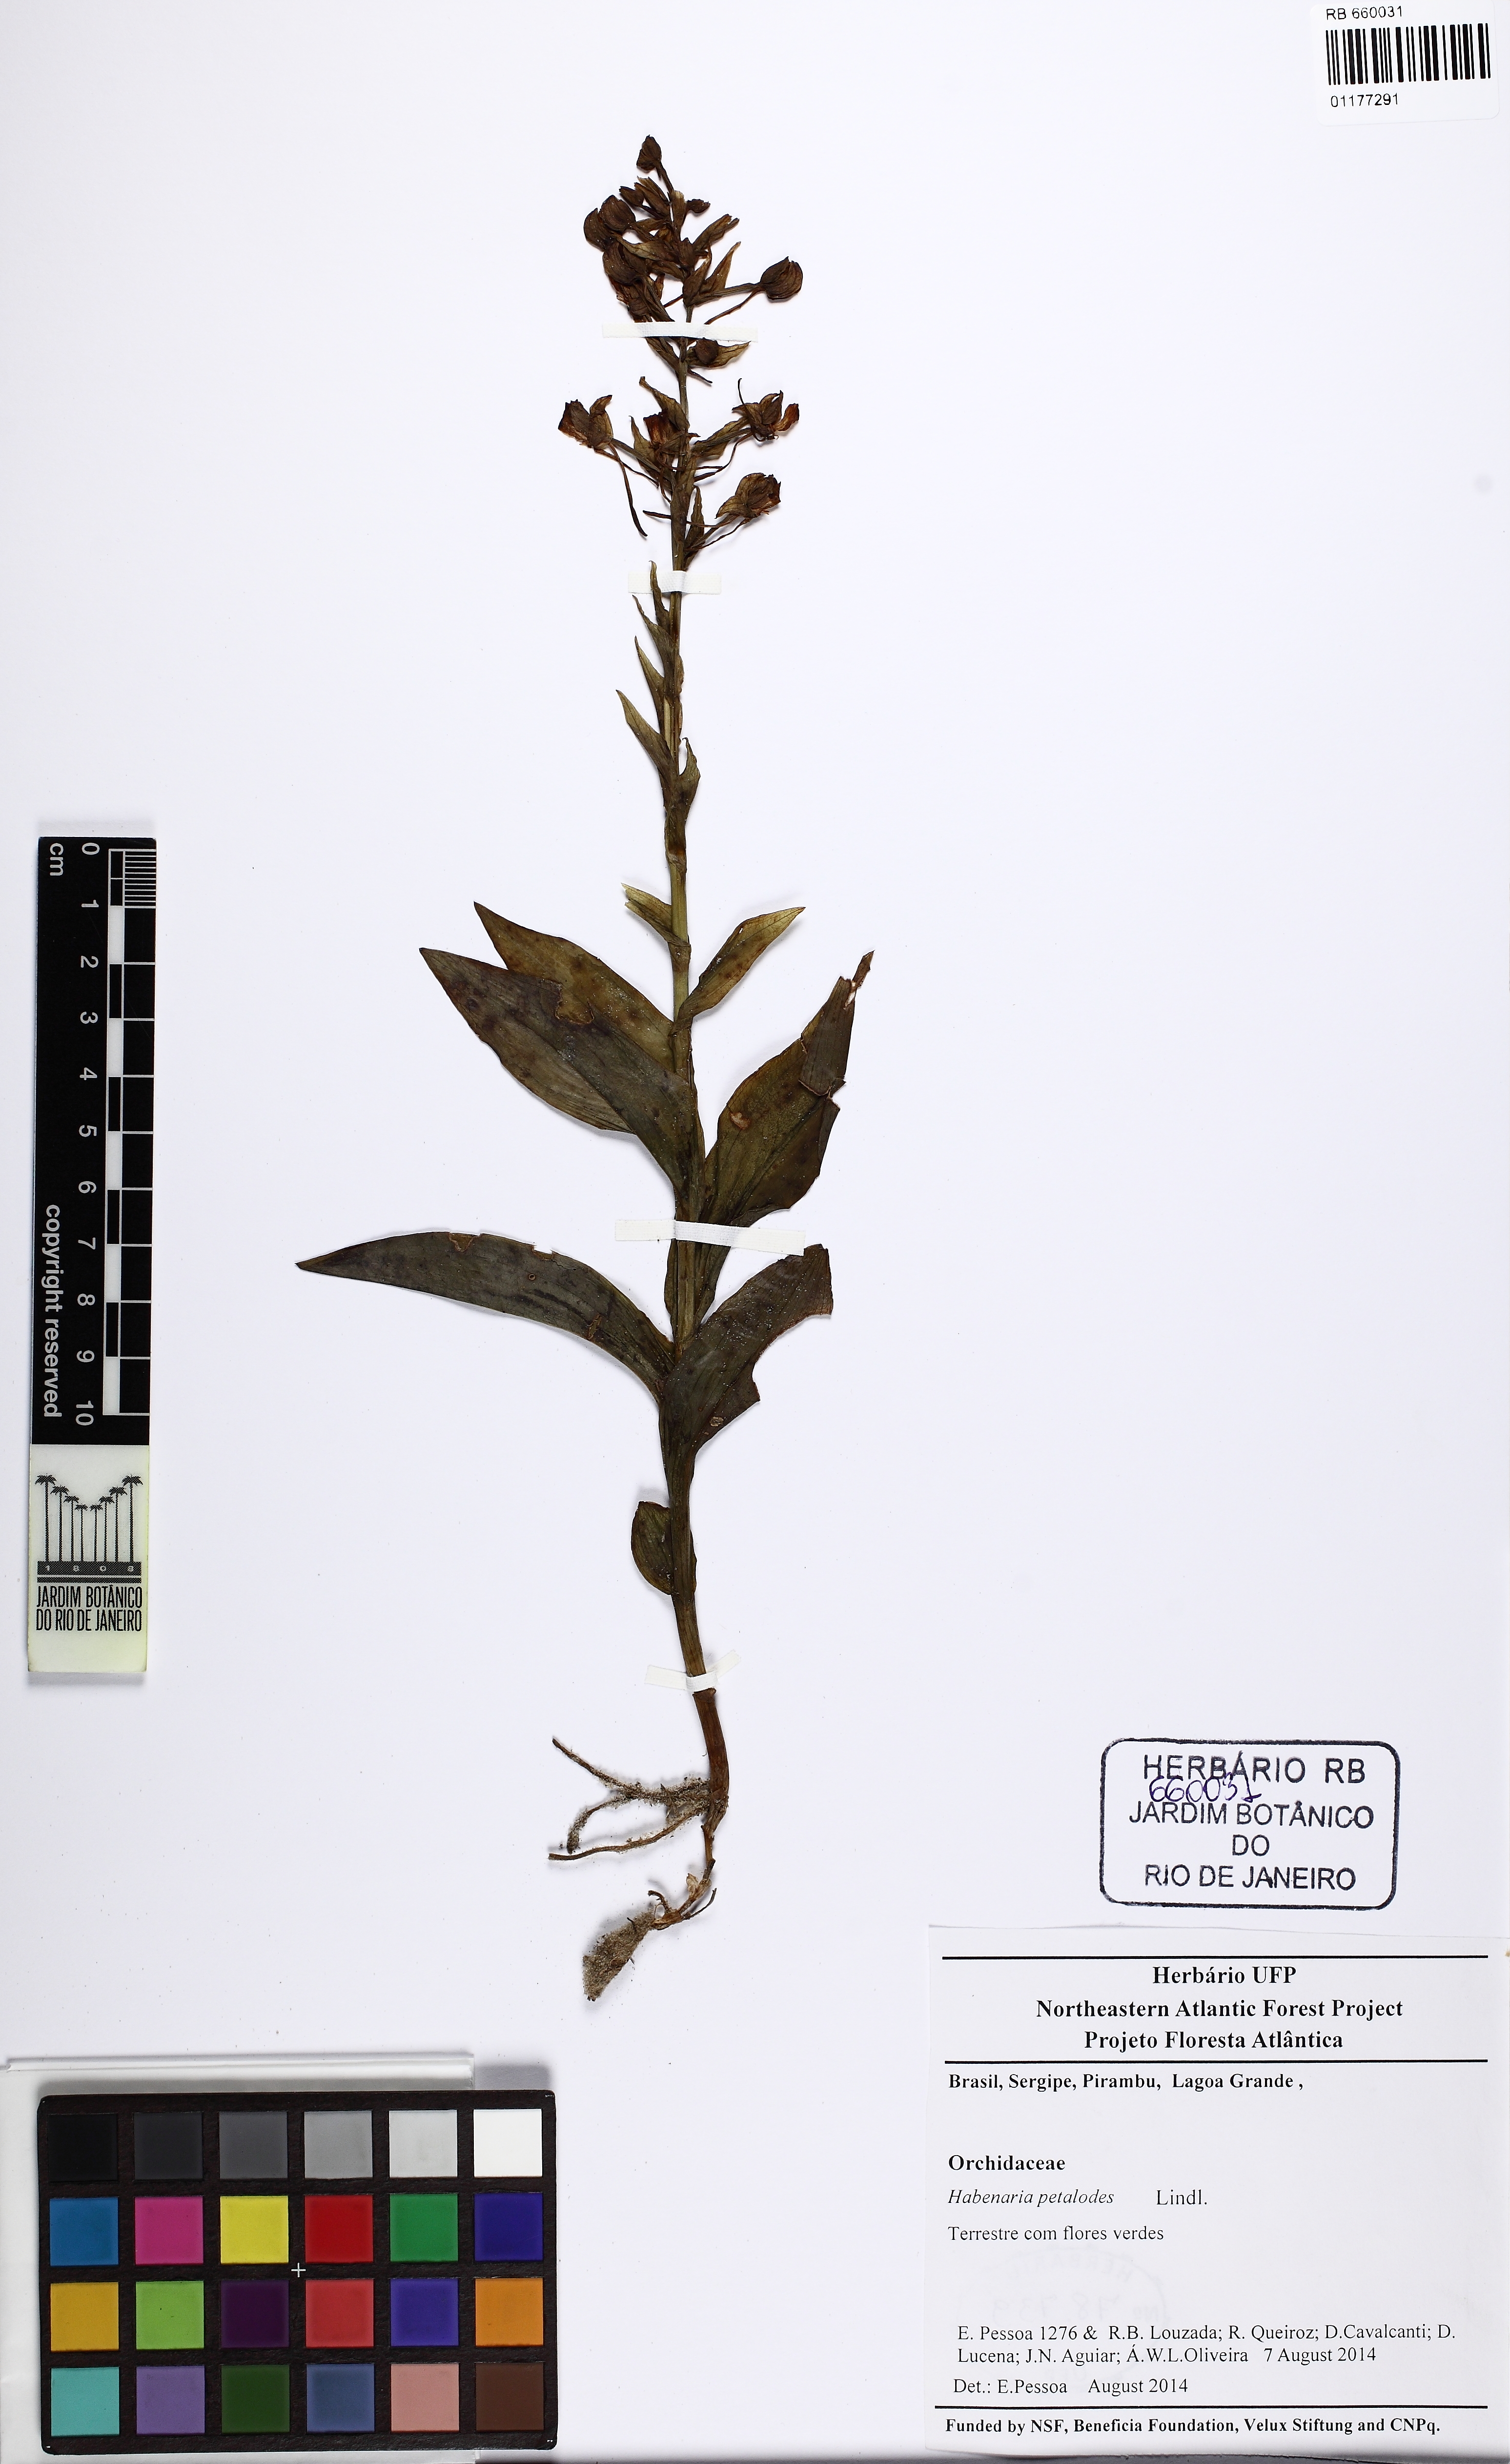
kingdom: Plantae
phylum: Tracheophyta
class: Liliopsida
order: Asparagales
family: Orchidaceae
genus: Habenaria
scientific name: Habenaria petalodes
